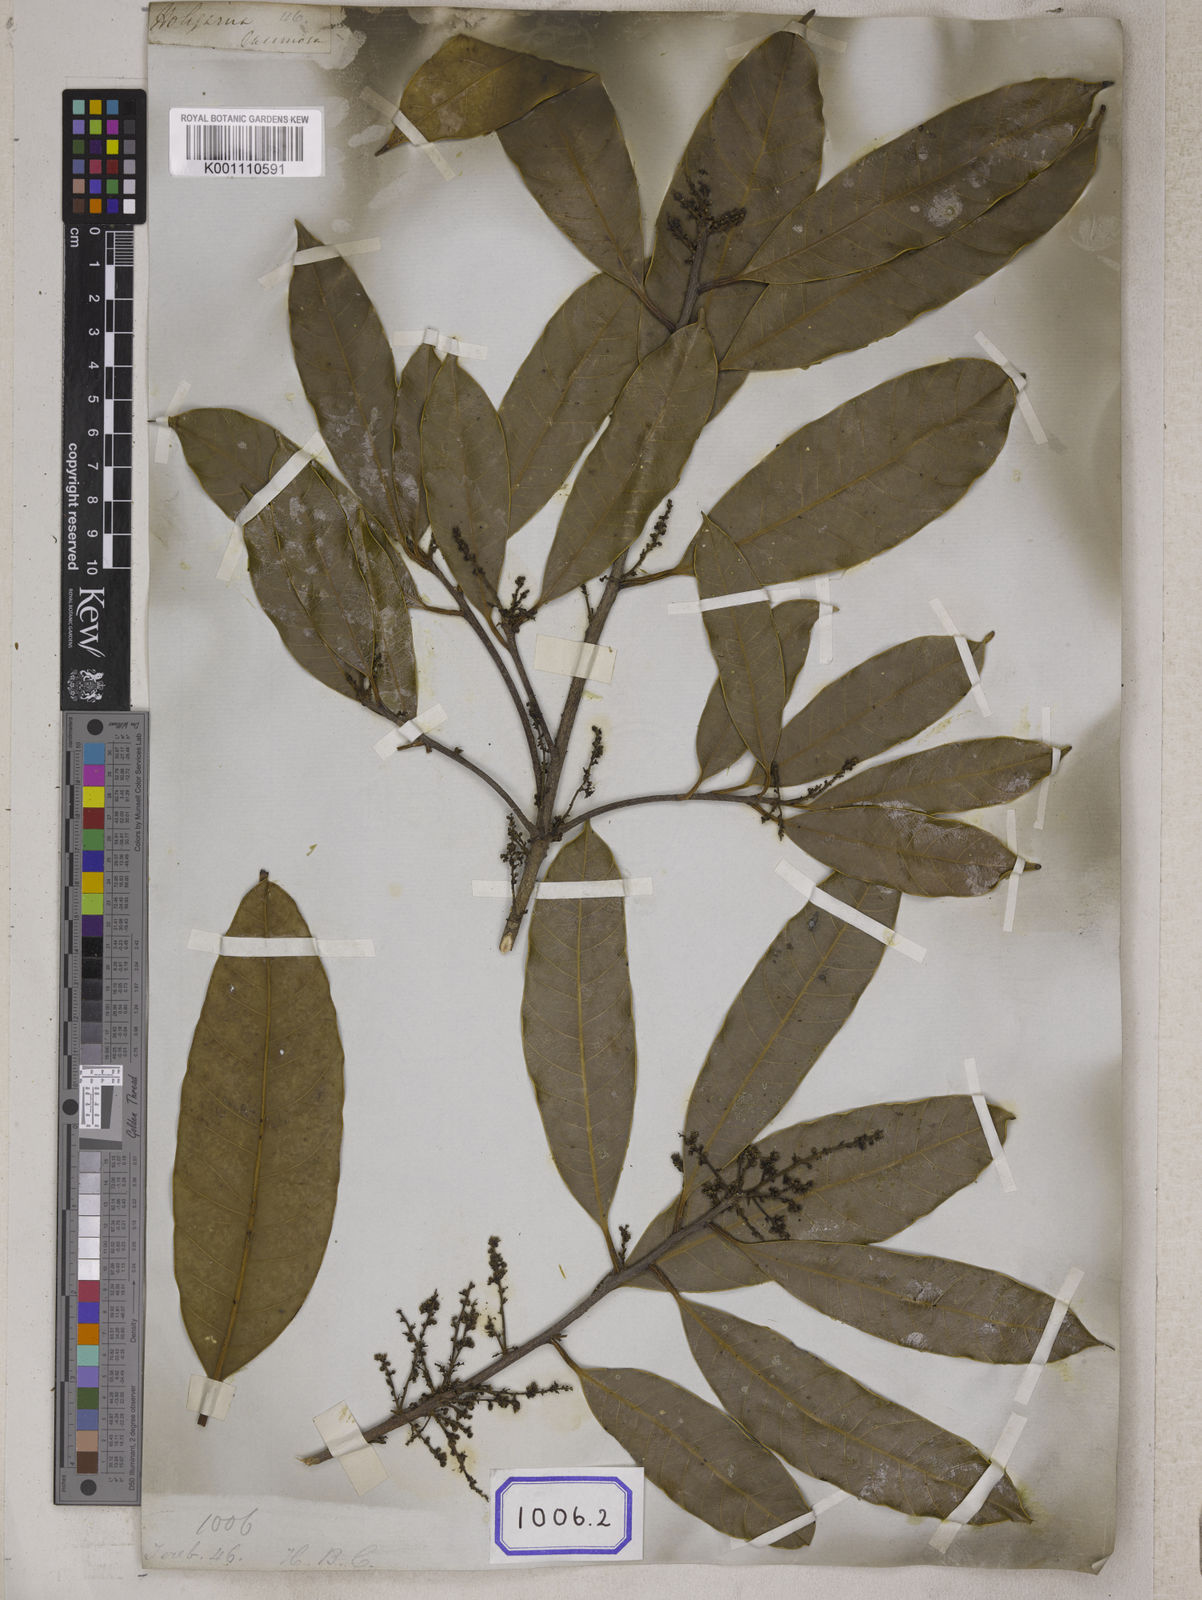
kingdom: Plantae
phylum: Tracheophyta
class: Magnoliopsida
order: Sapindales
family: Anacardiaceae
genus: Drimycarpus
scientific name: Drimycarpus racemosus
